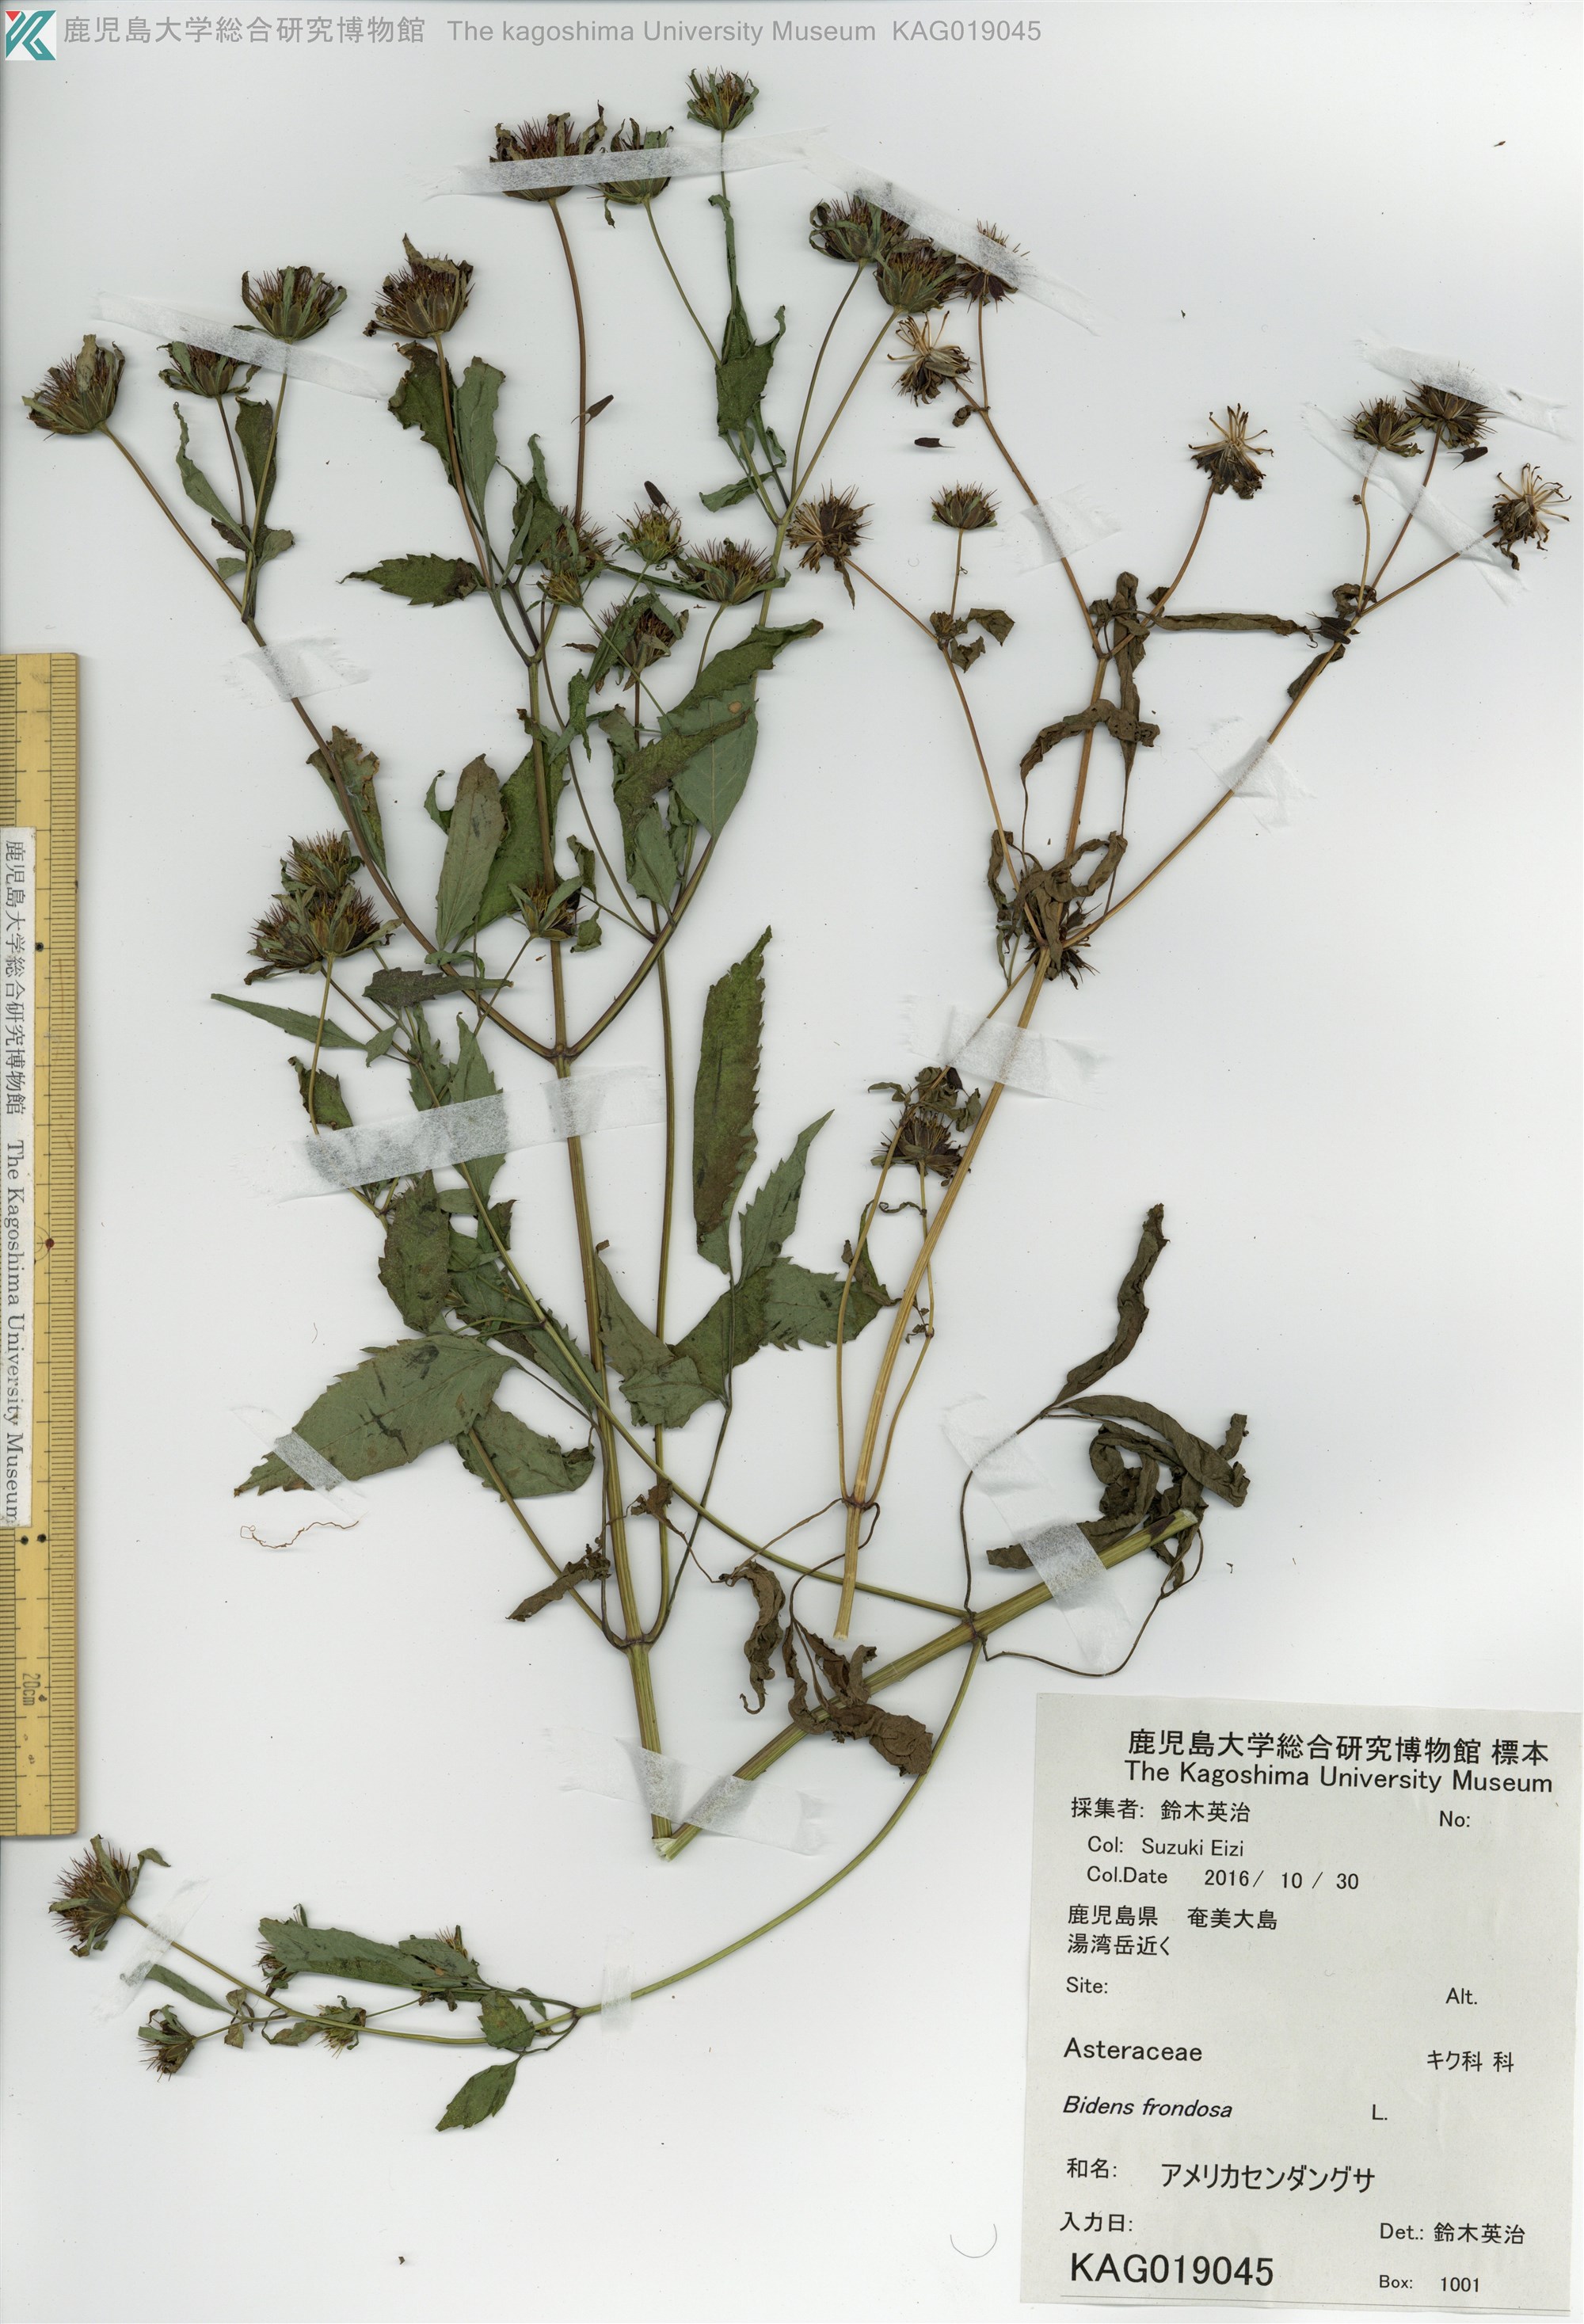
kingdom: Plantae
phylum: Tracheophyta
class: Magnoliopsida
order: Asterales
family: Asteraceae
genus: Bidens
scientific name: Bidens frondosa
